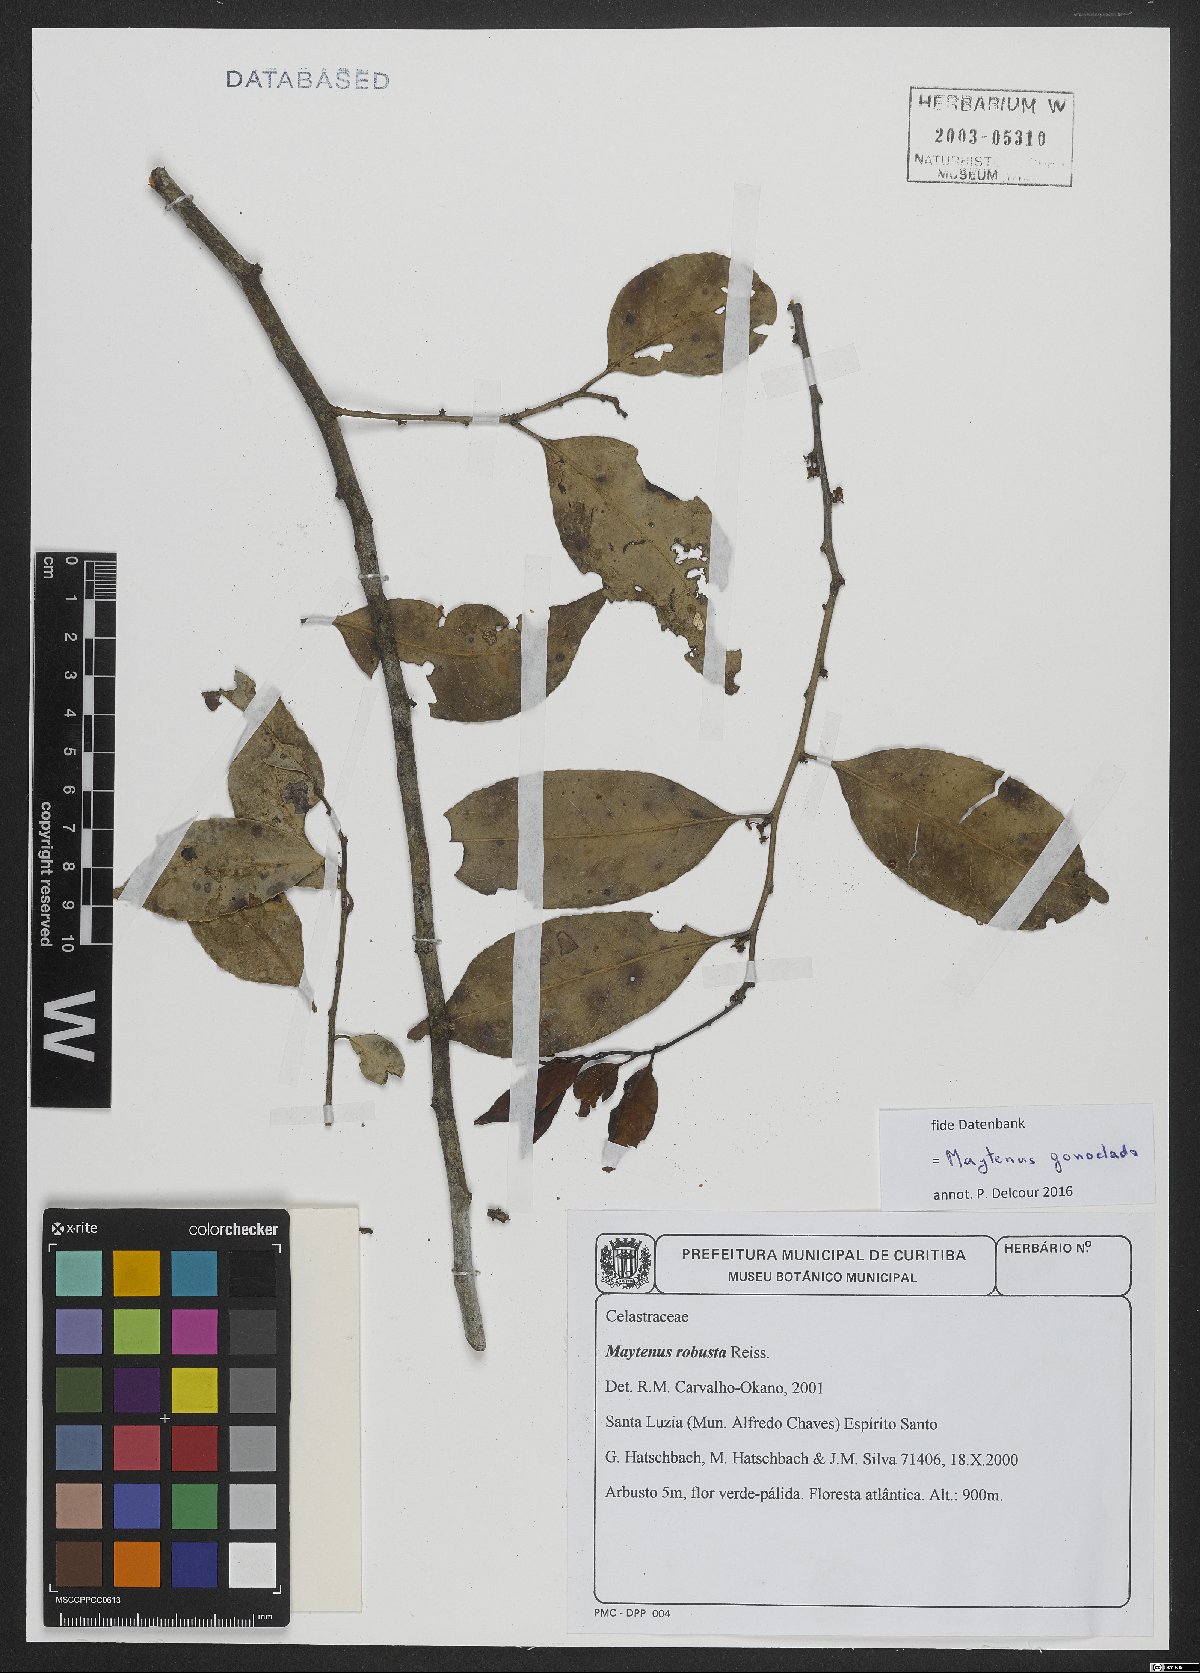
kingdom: Plantae
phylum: Tracheophyta
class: Magnoliopsida
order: Celastrales
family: Celastraceae
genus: Monteverdia
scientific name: Monteverdia gonoclada
